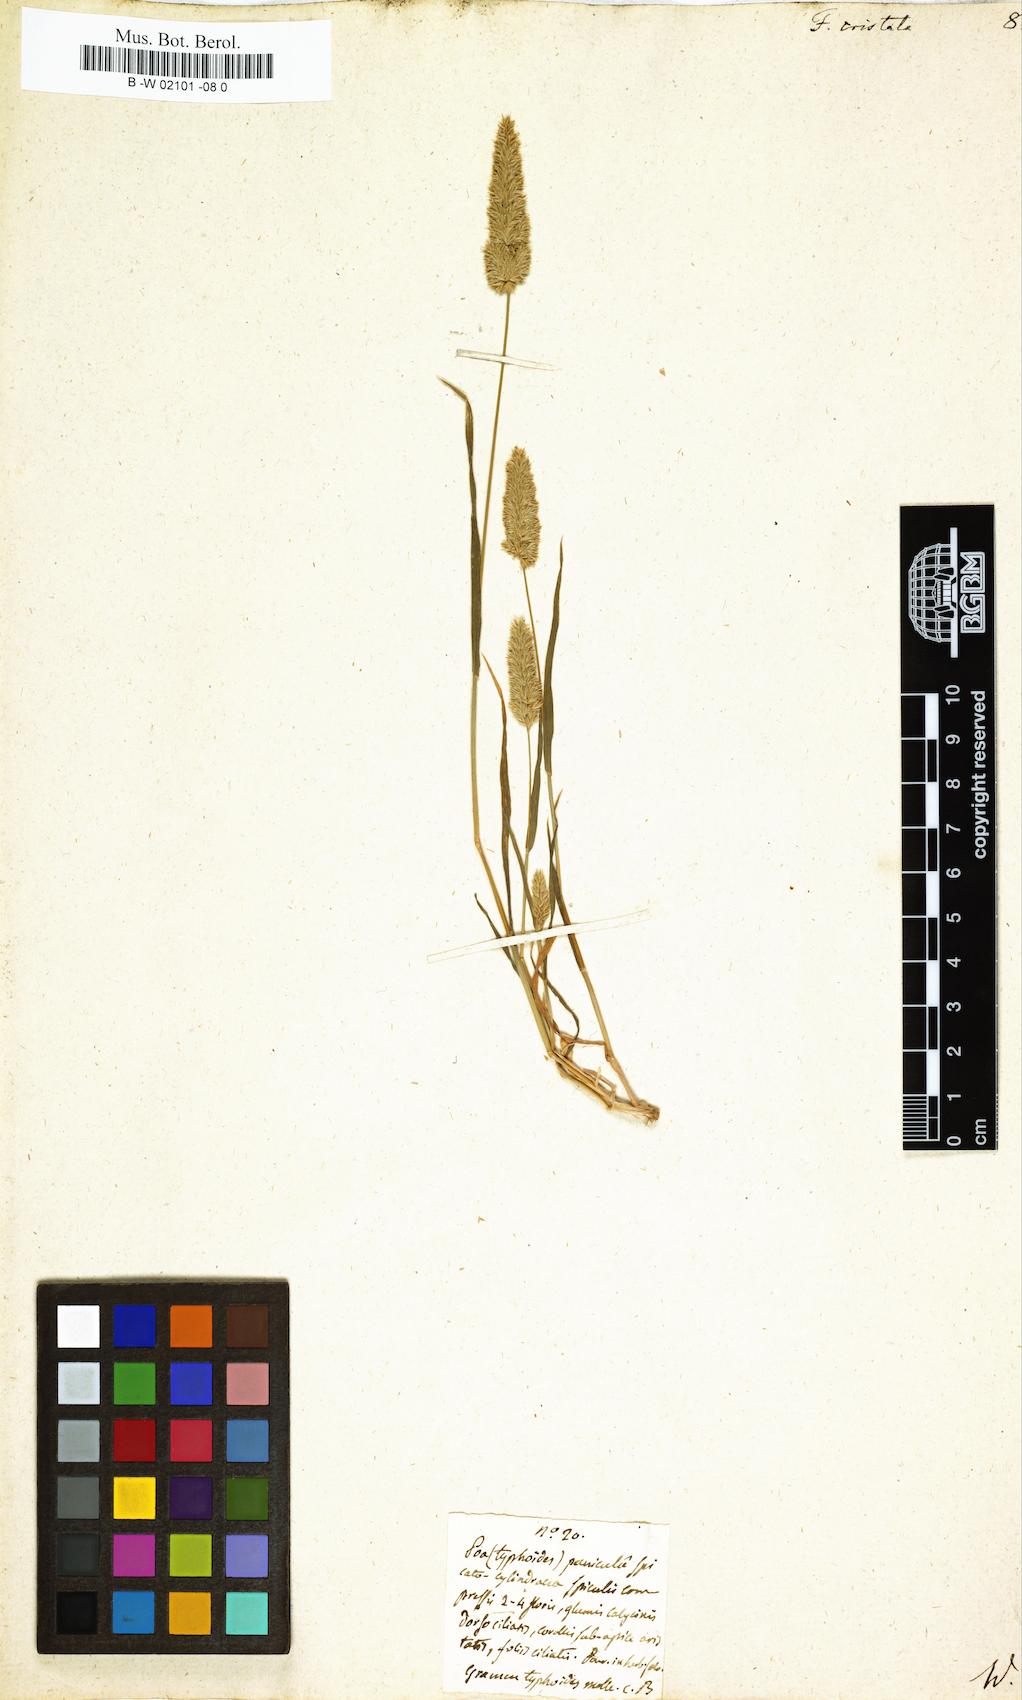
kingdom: Plantae
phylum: Tracheophyta
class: Liliopsida
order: Poales
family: Poaceae
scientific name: Poaceae
